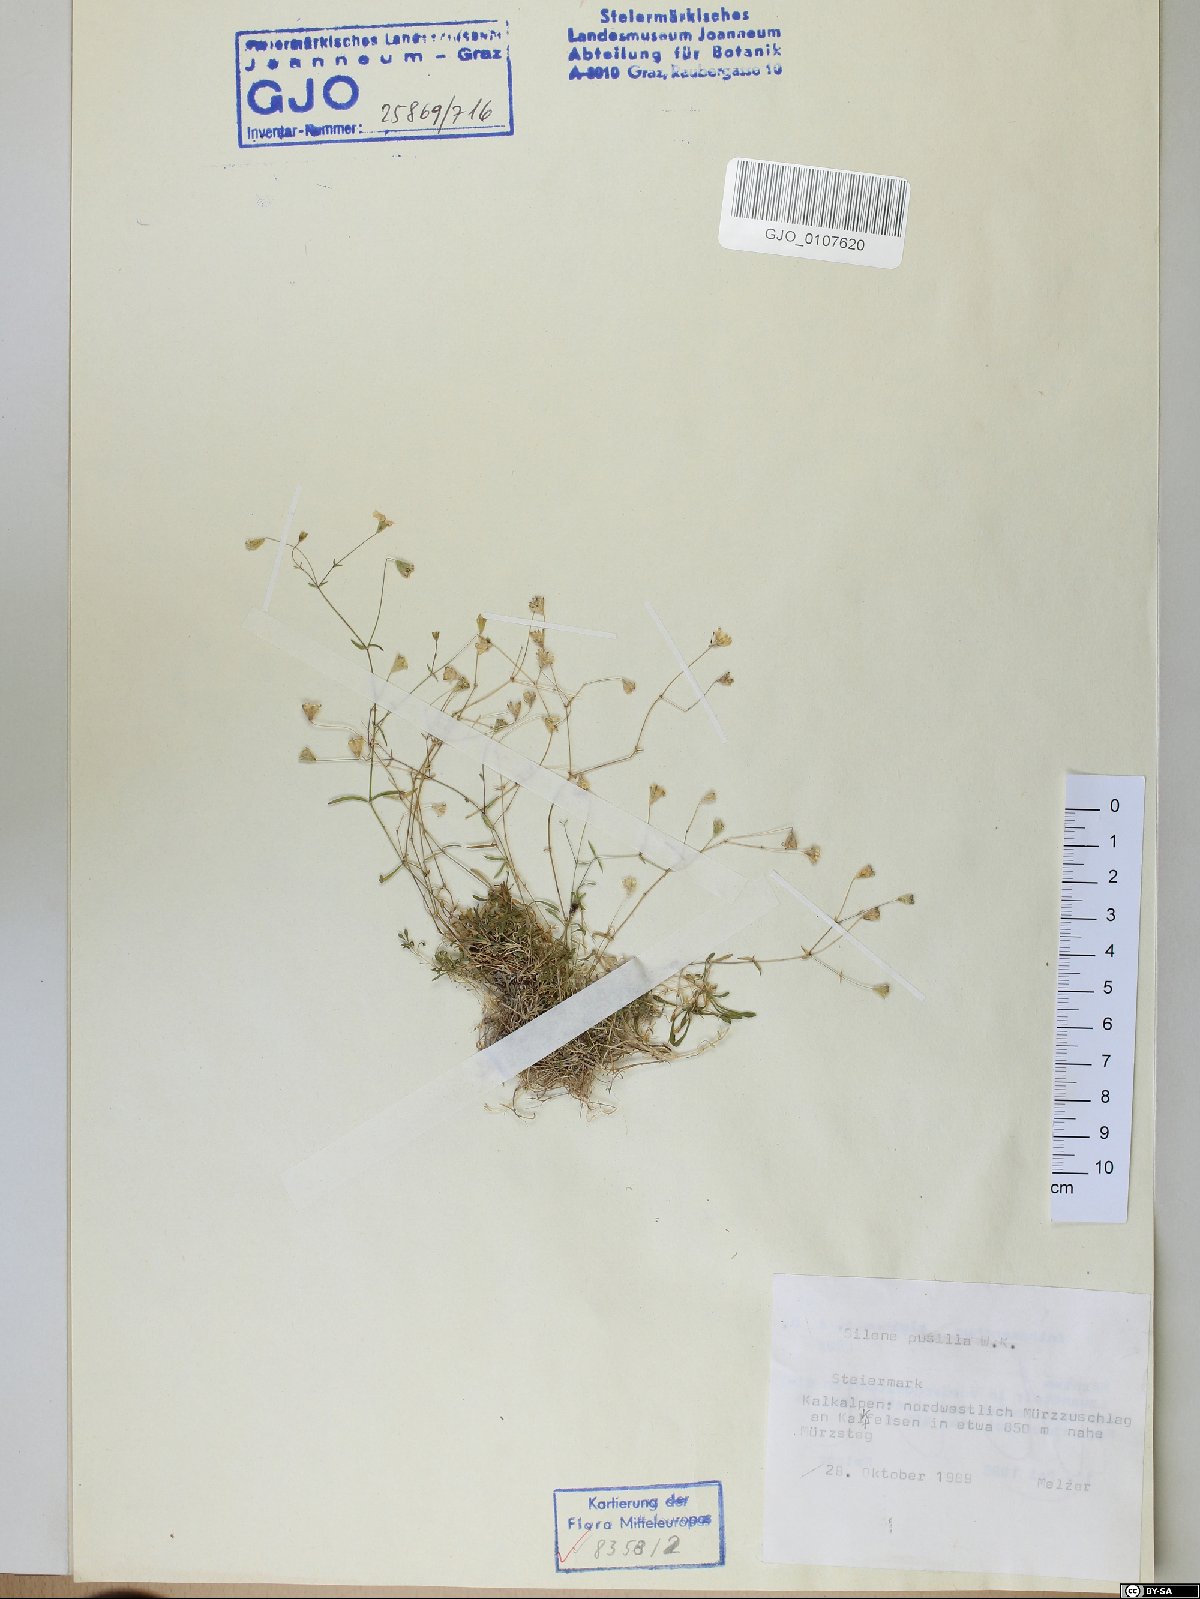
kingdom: Plantae
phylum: Tracheophyta
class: Magnoliopsida
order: Caryophyllales
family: Caryophyllaceae
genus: Heliosperma
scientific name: Heliosperma pusillum
